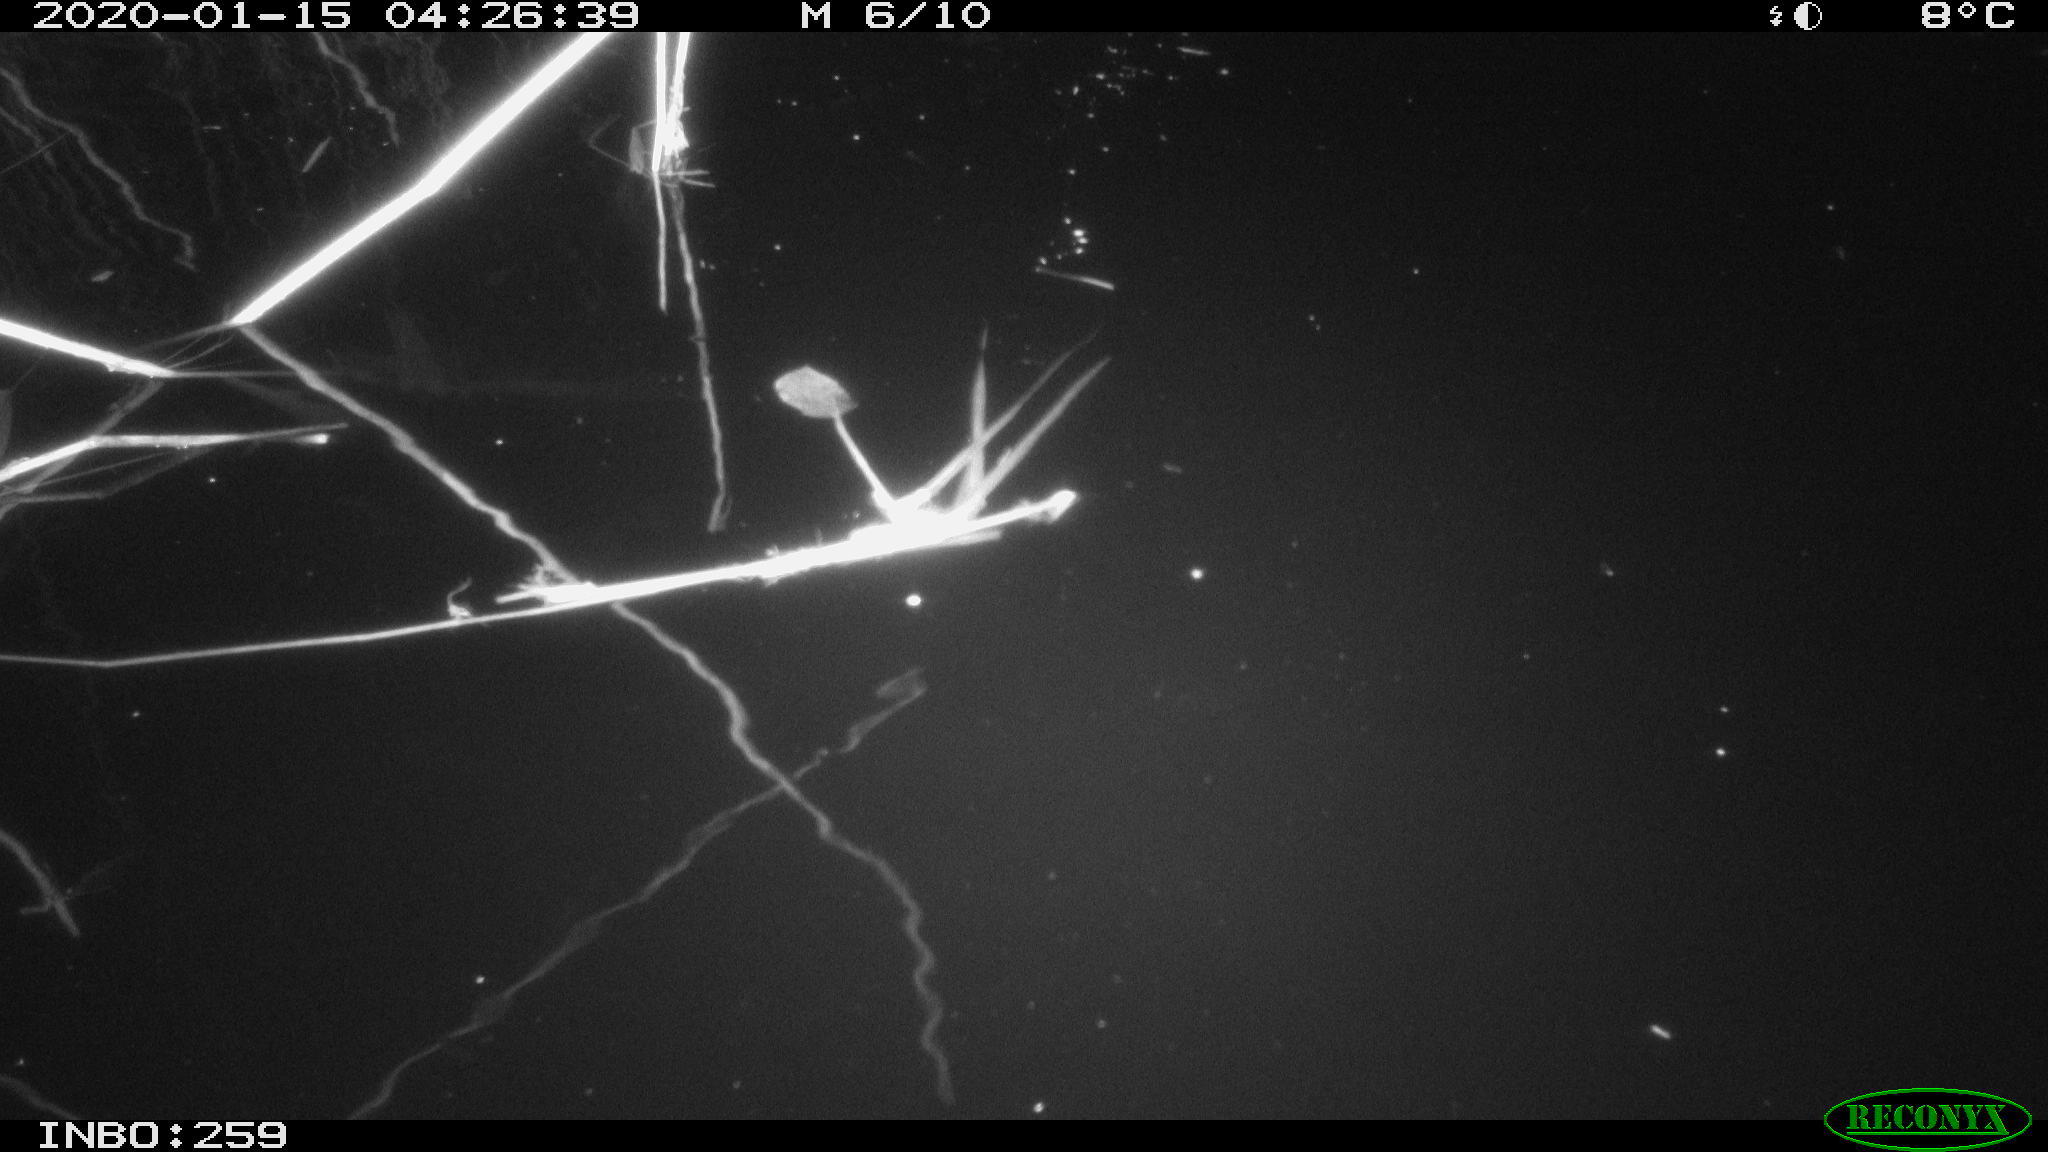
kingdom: Animalia
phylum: Chordata
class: Aves
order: Gruiformes
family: Rallidae
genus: Gallinula
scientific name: Gallinula chloropus
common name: Common moorhen
